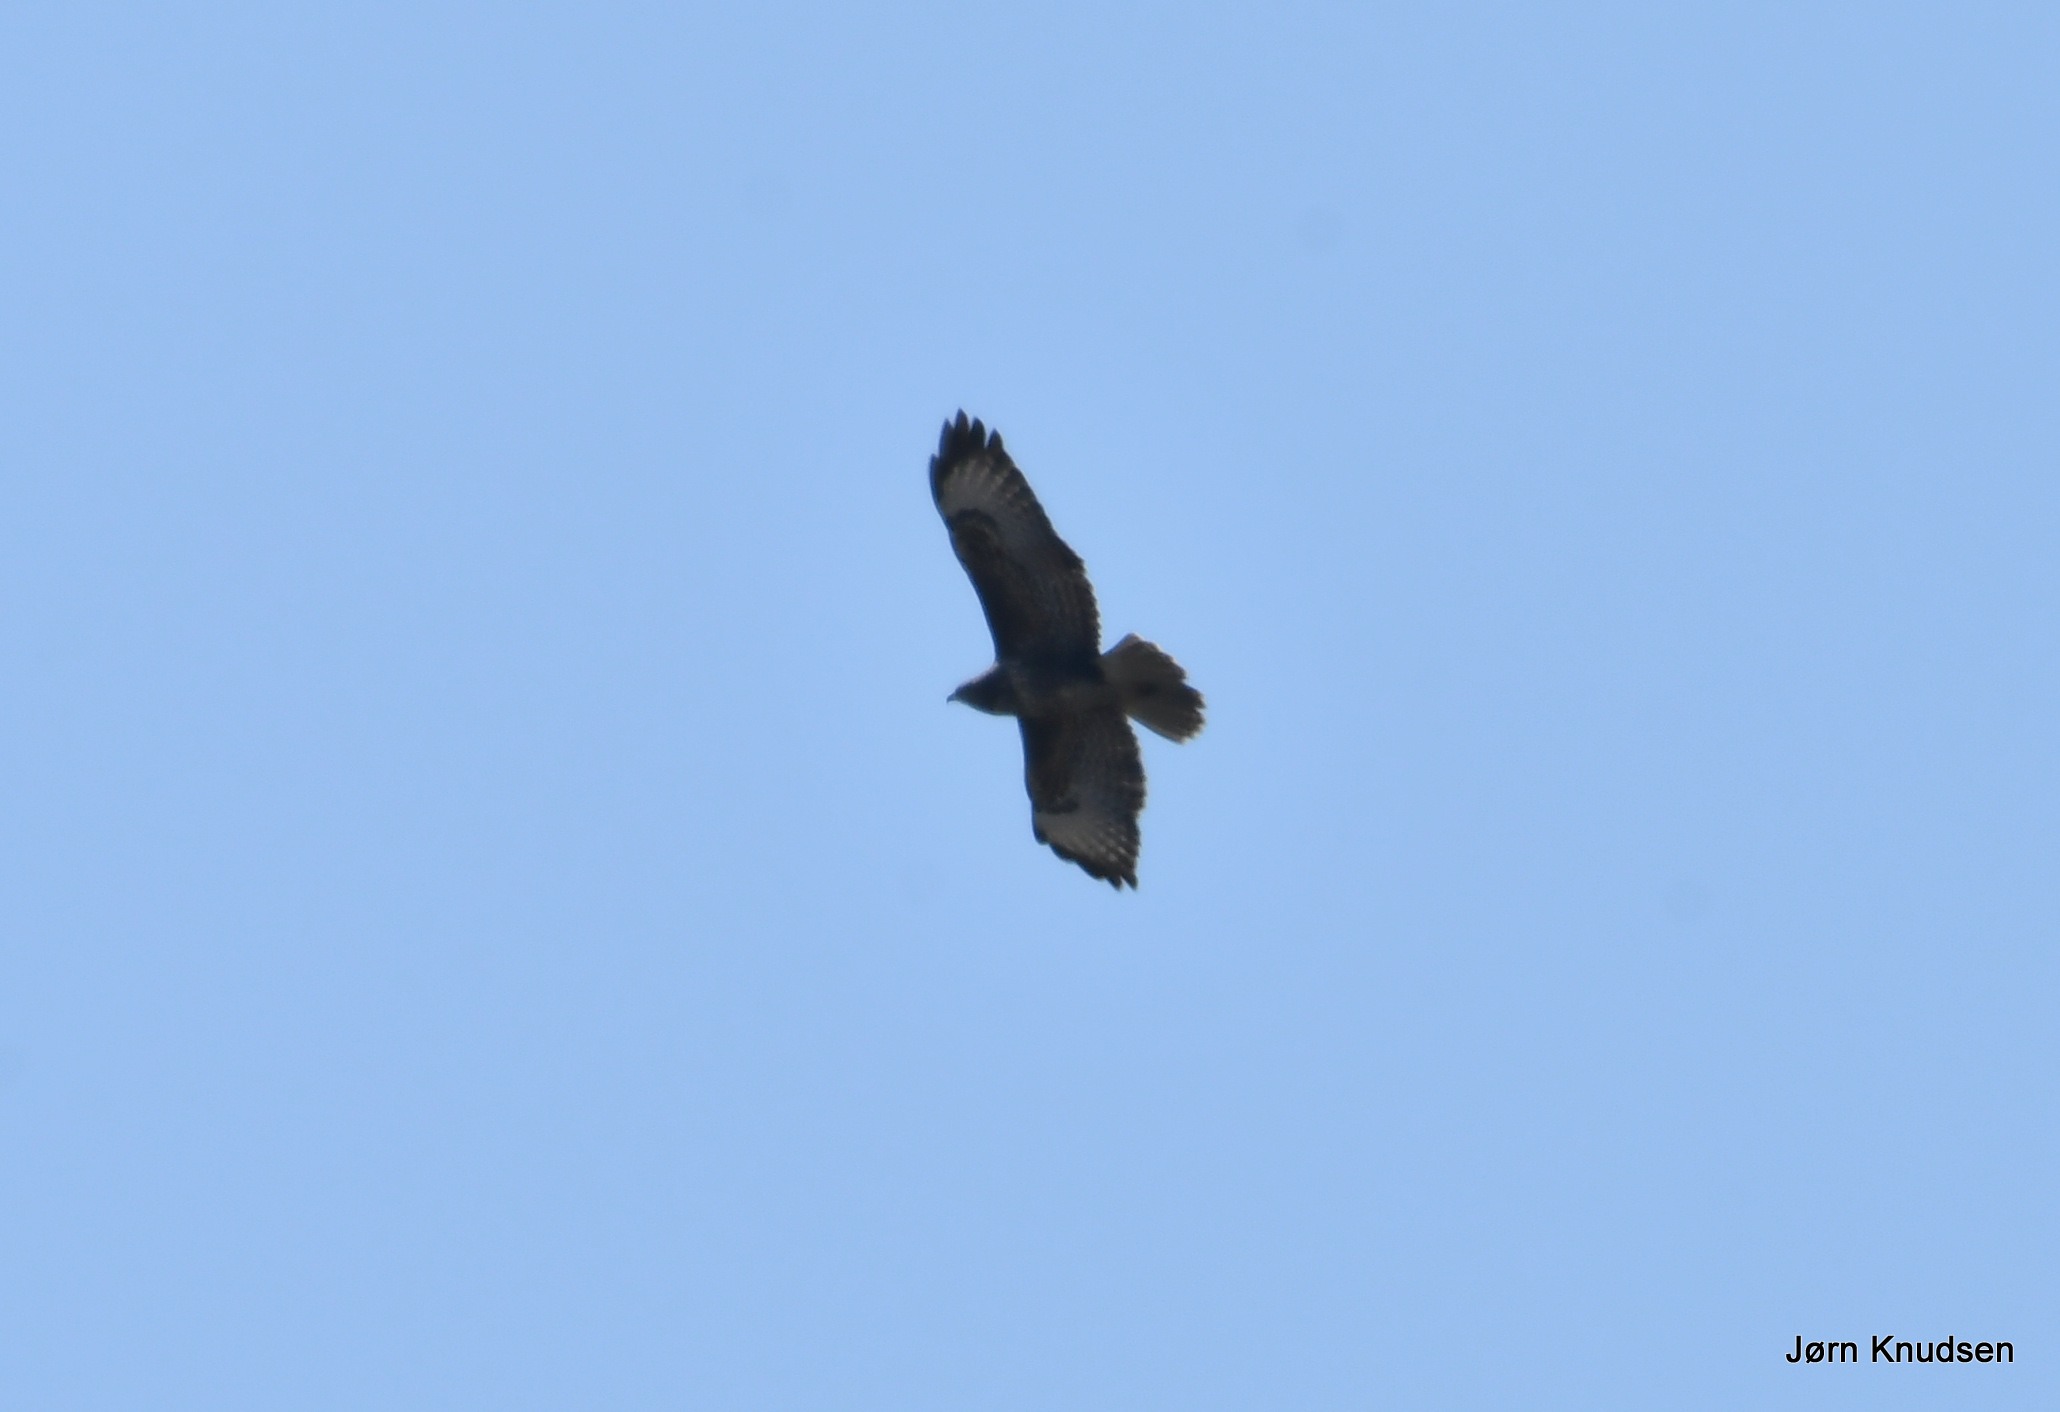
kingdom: Animalia
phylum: Chordata
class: Aves
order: Accipitriformes
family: Accipitridae
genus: Buteo
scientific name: Buteo buteo
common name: Musvåge
